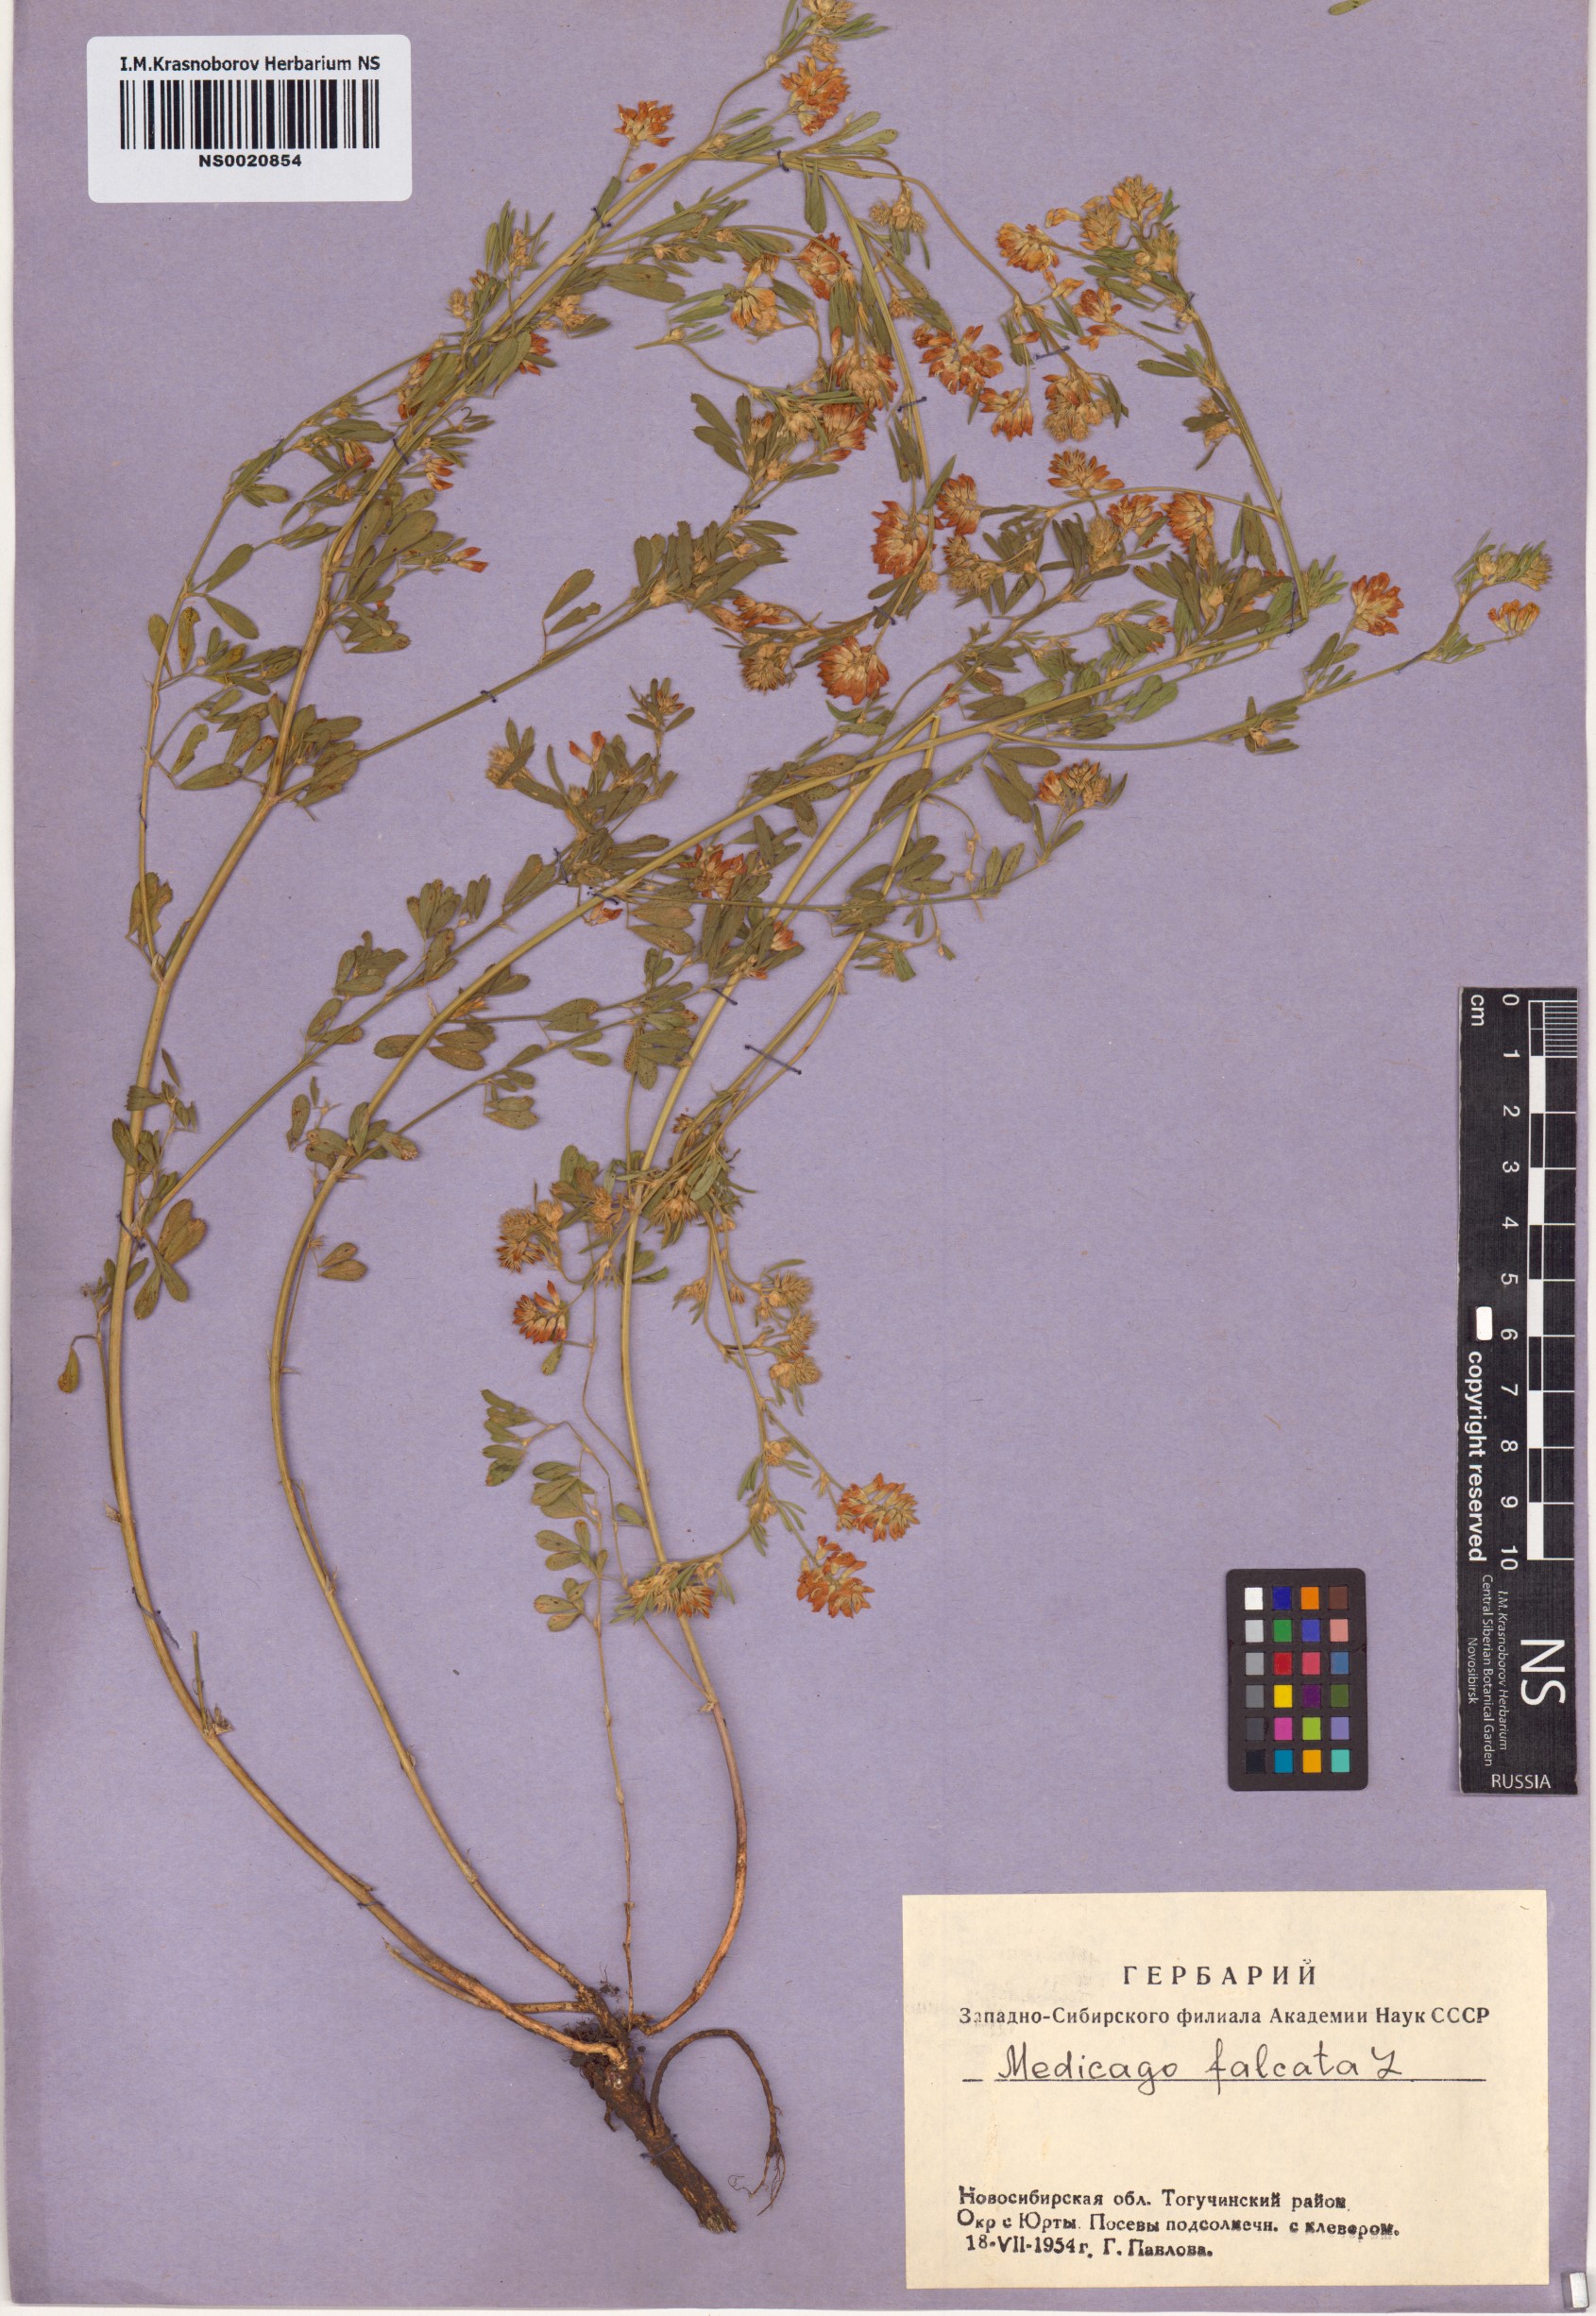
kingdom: Plantae
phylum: Tracheophyta
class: Magnoliopsida
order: Fabales
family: Fabaceae
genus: Medicago
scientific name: Medicago falcata
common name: Sickle medick
